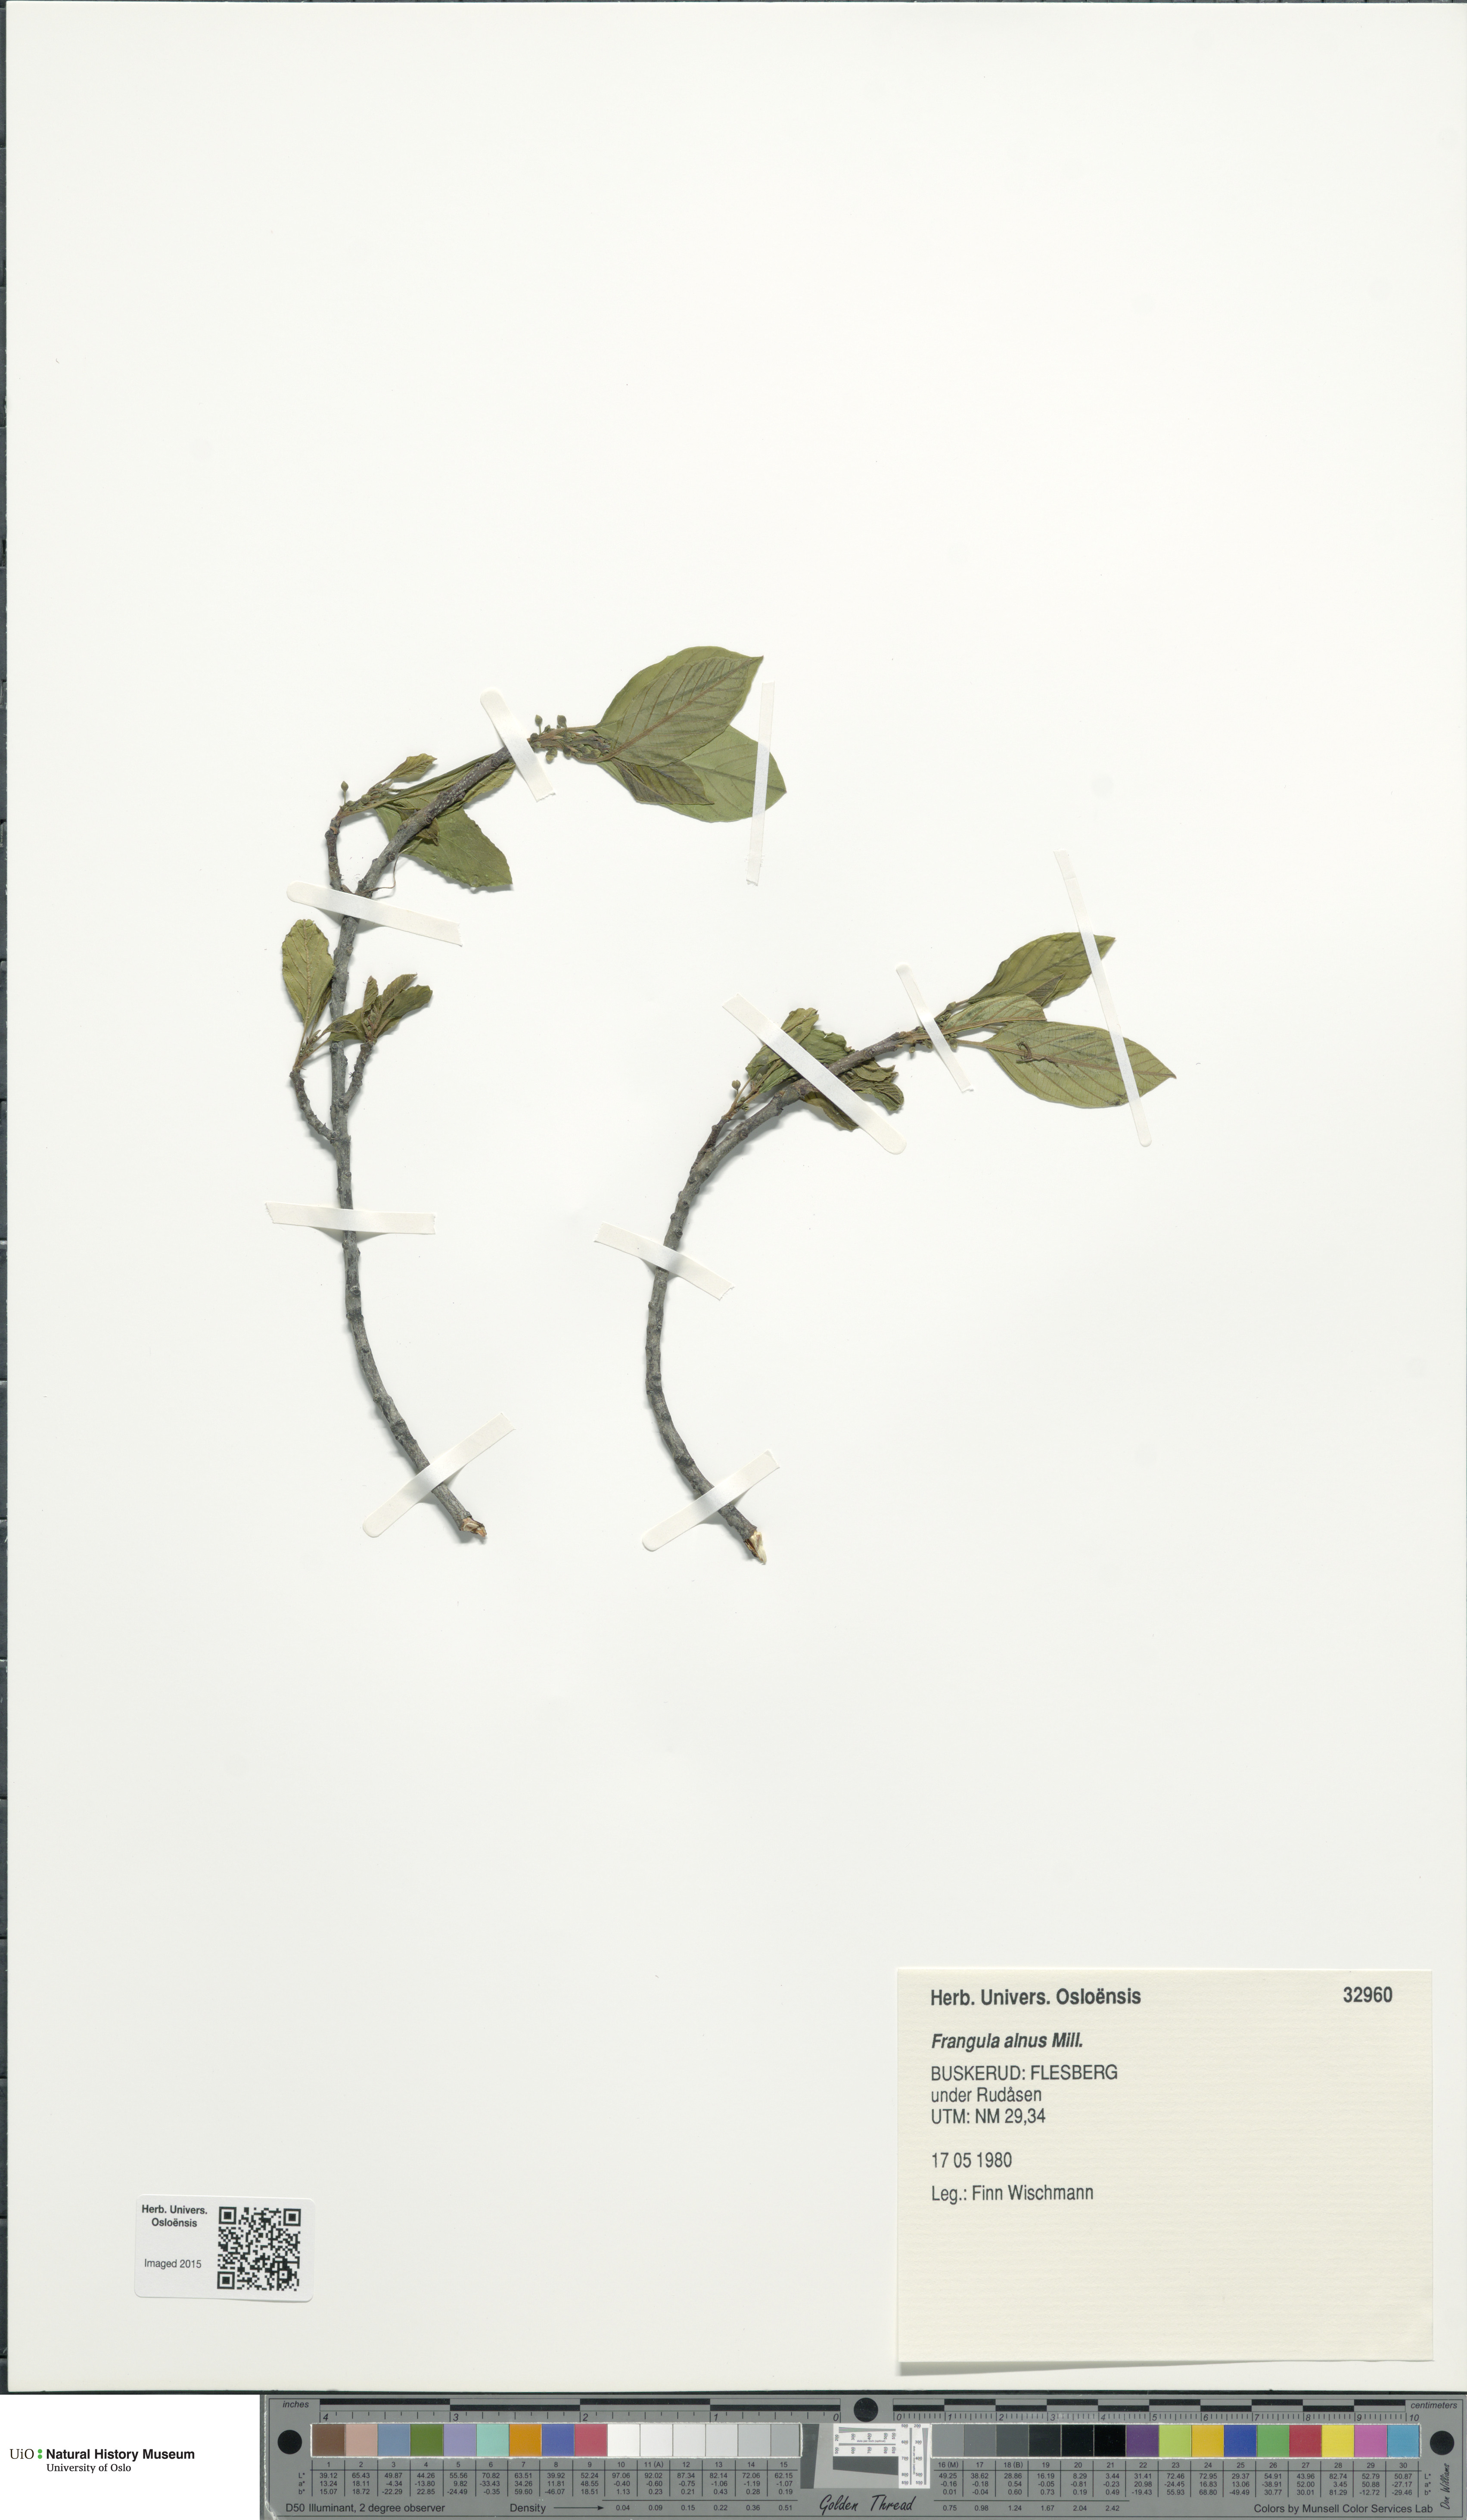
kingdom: Plantae
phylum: Tracheophyta
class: Magnoliopsida
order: Rosales
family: Rhamnaceae
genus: Frangula
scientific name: Frangula alnus
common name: Alder buckthorn
